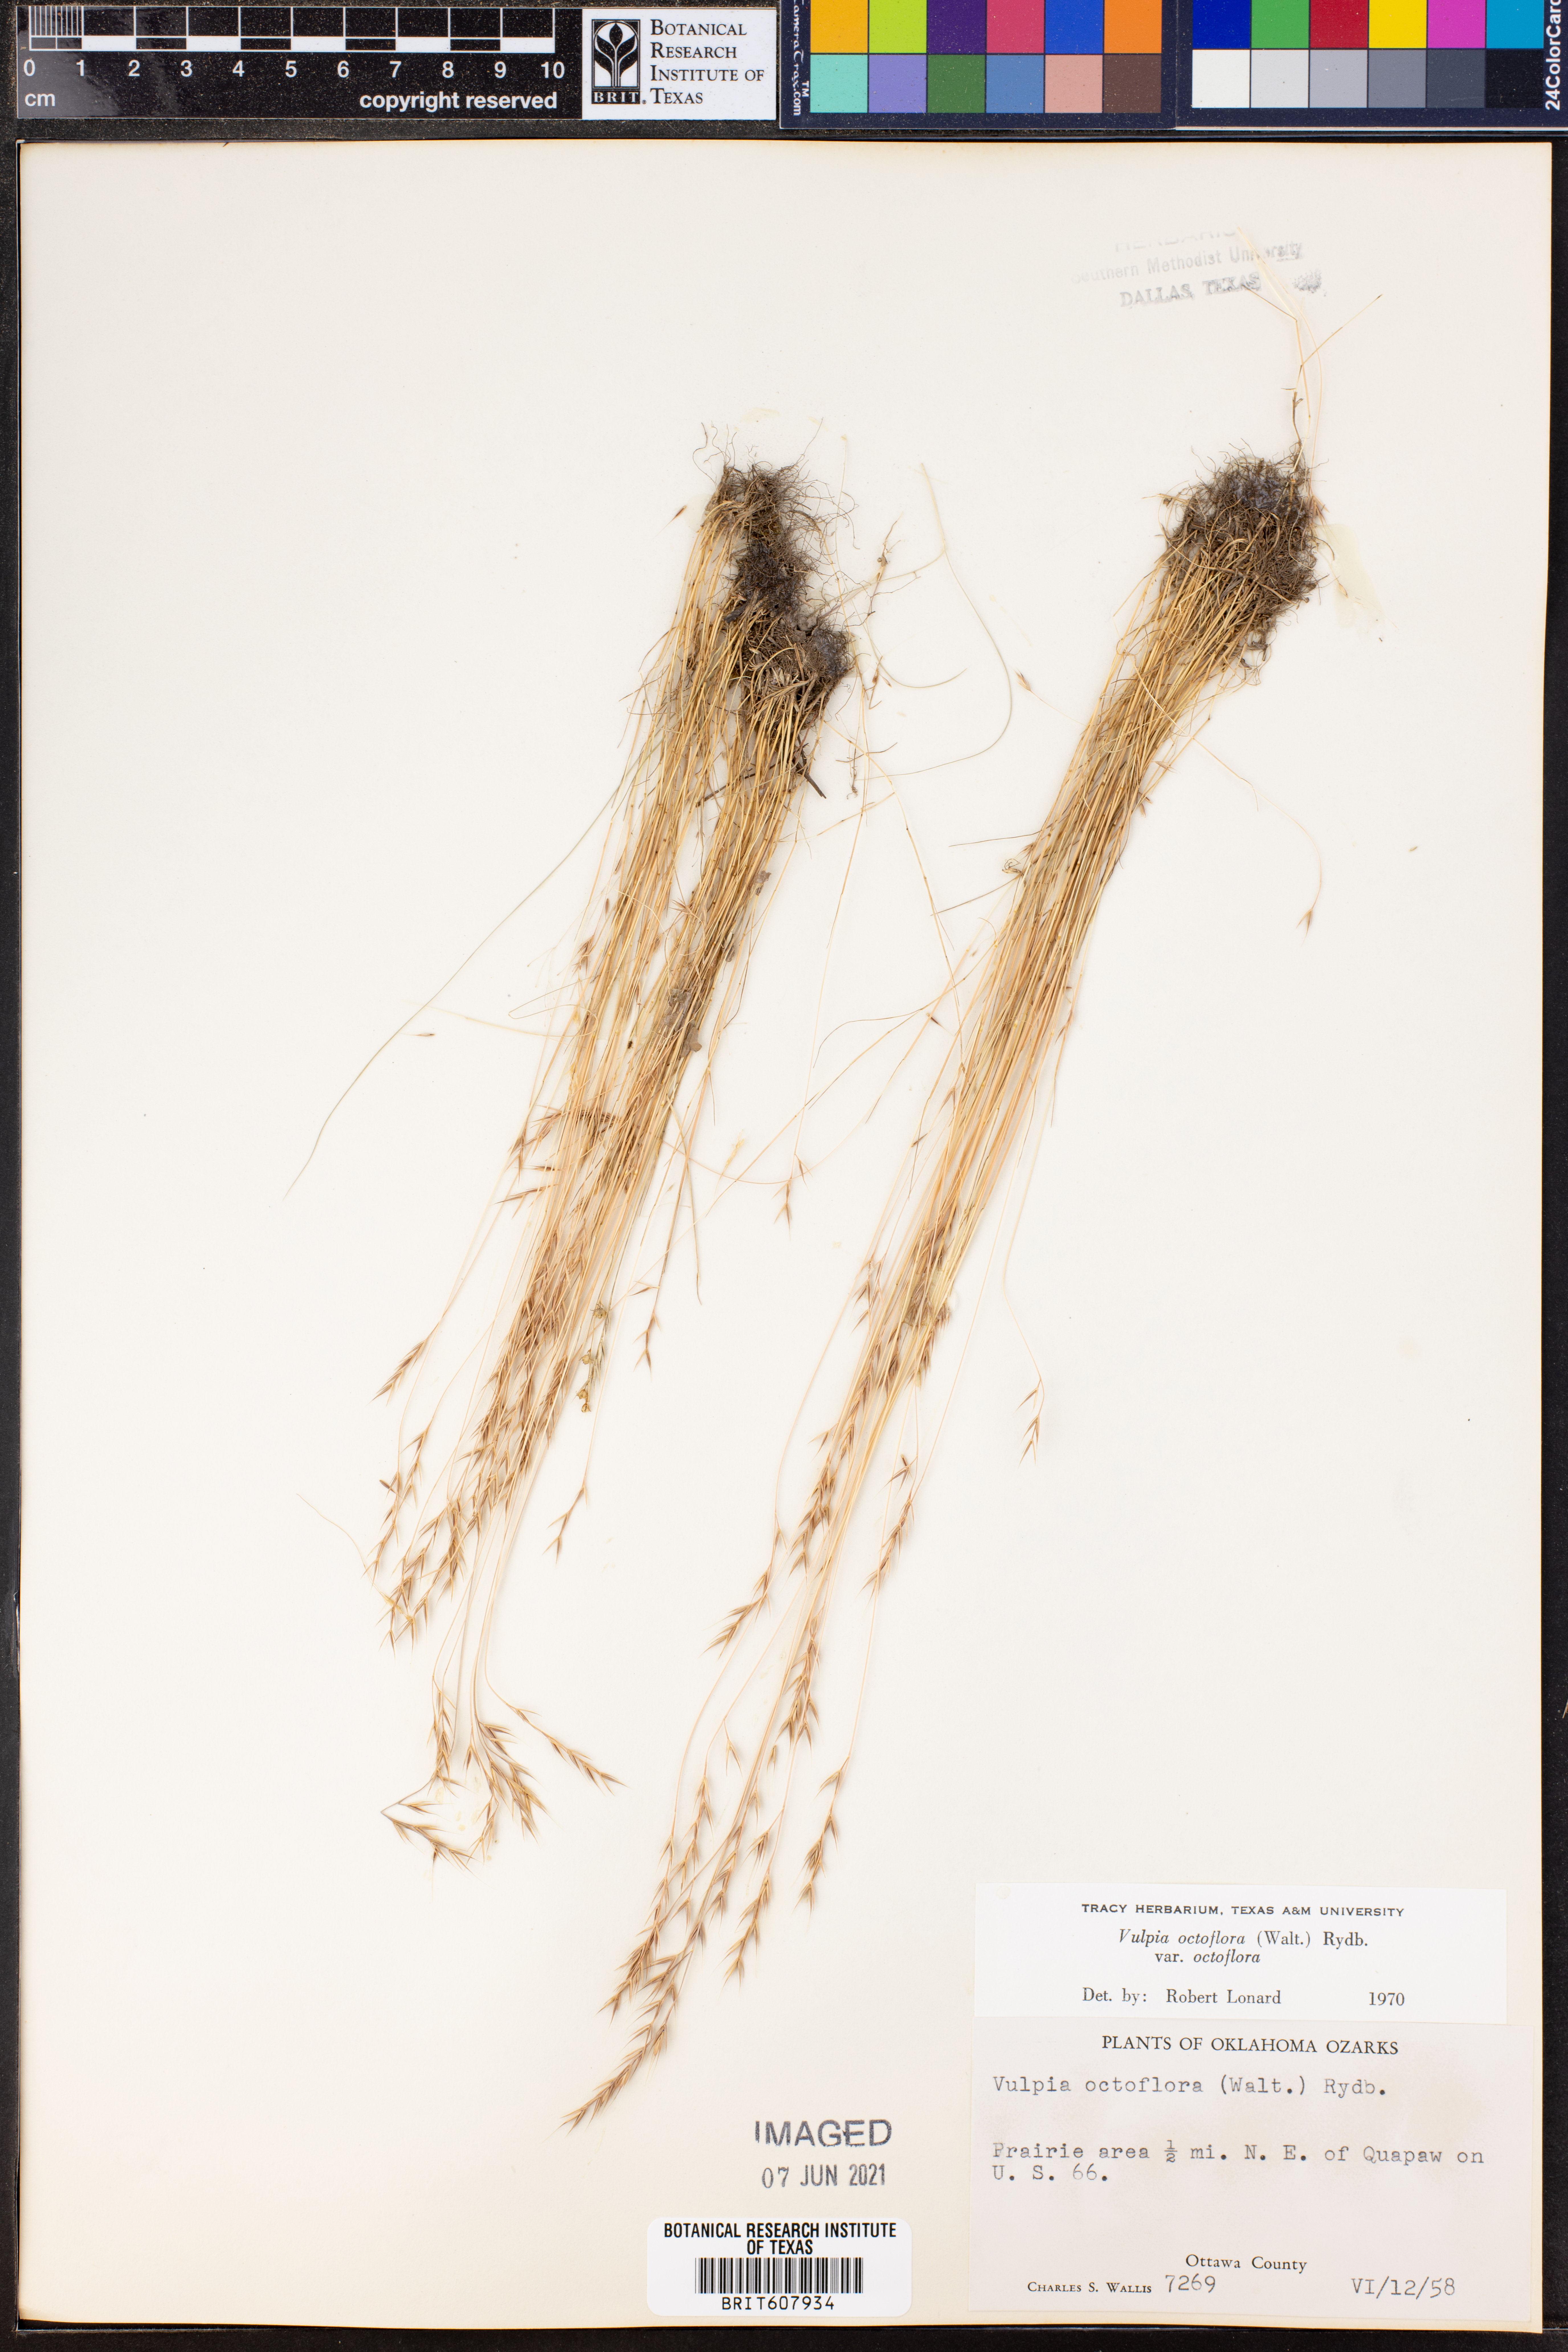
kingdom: Plantae
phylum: Tracheophyta
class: Liliopsida
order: Poales
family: Poaceae
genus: Festuca
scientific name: Festuca octoflora
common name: Sixweeks grass
